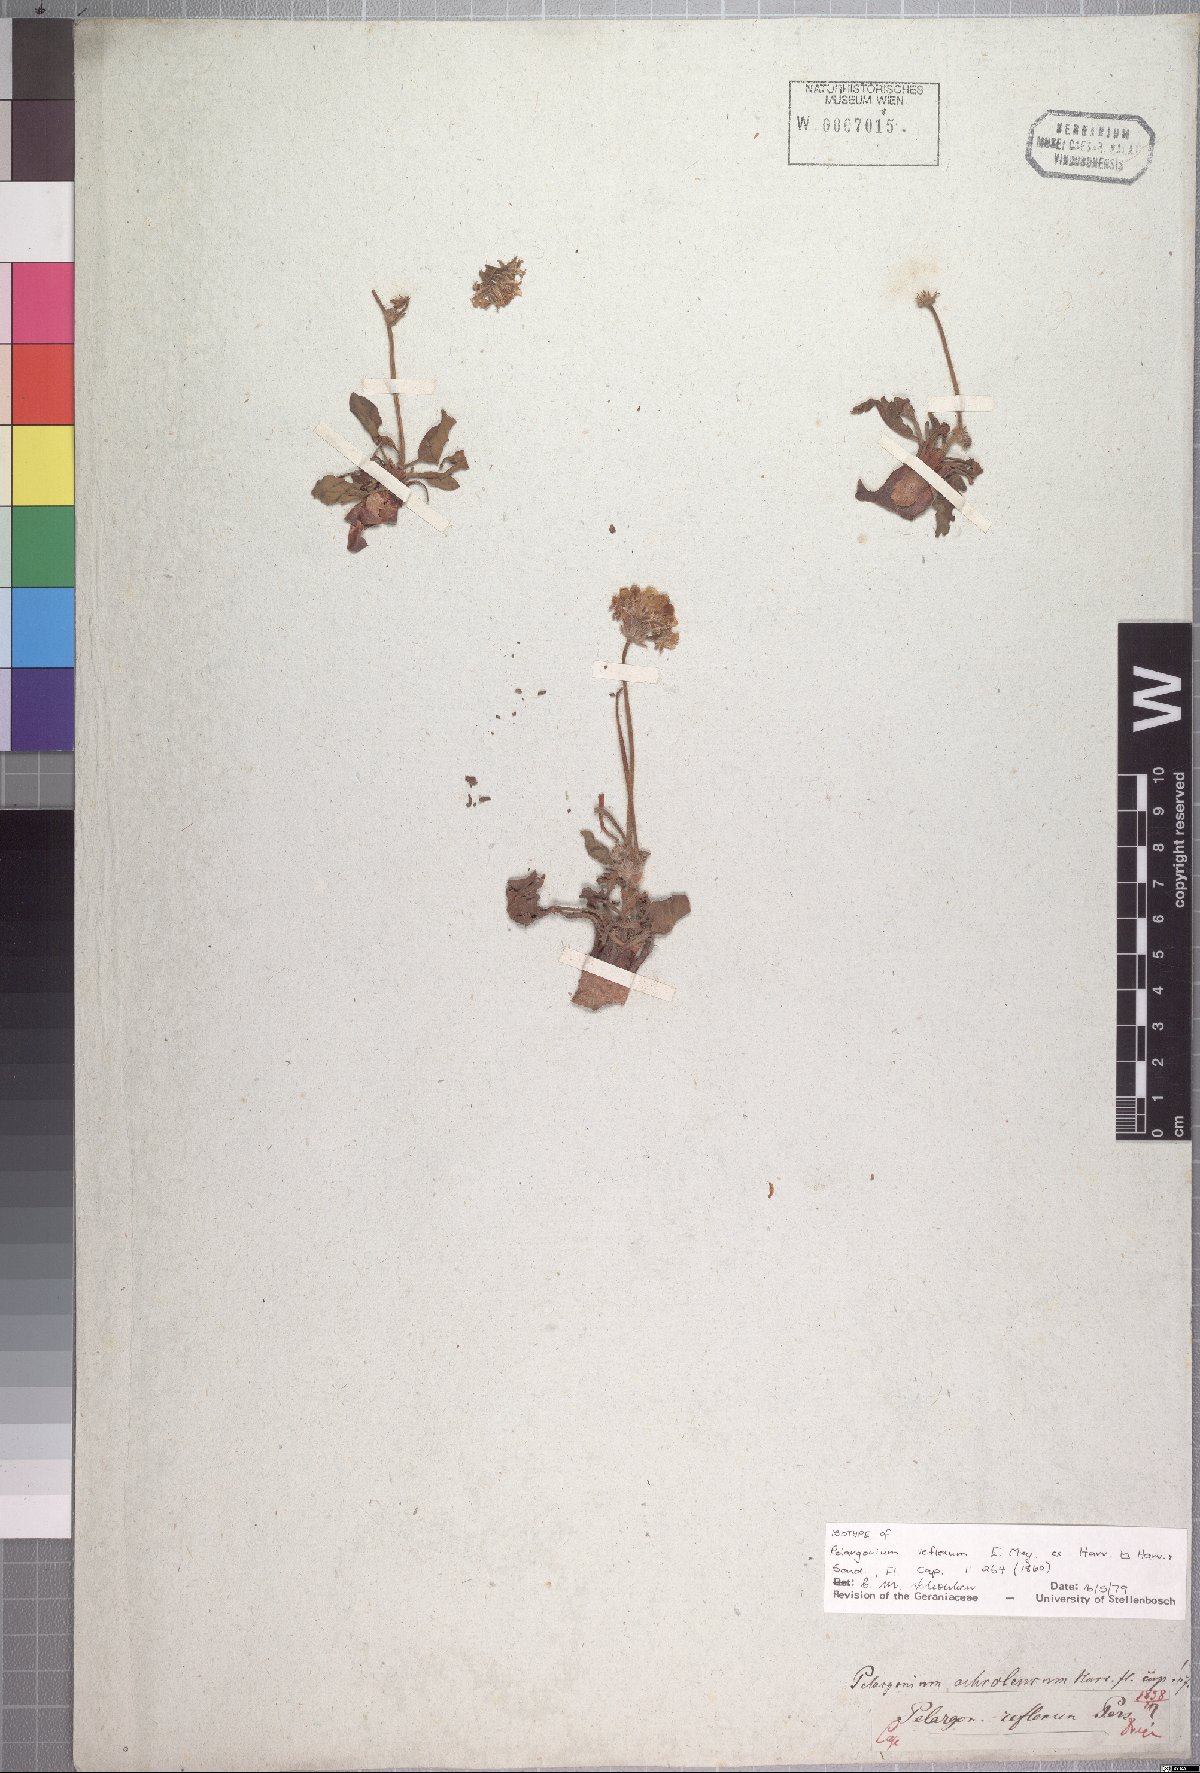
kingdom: Plantae
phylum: Tracheophyta
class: Magnoliopsida
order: Geraniales
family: Geraniaceae
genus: Pelargonium
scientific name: Pelargonium ochroleucum
